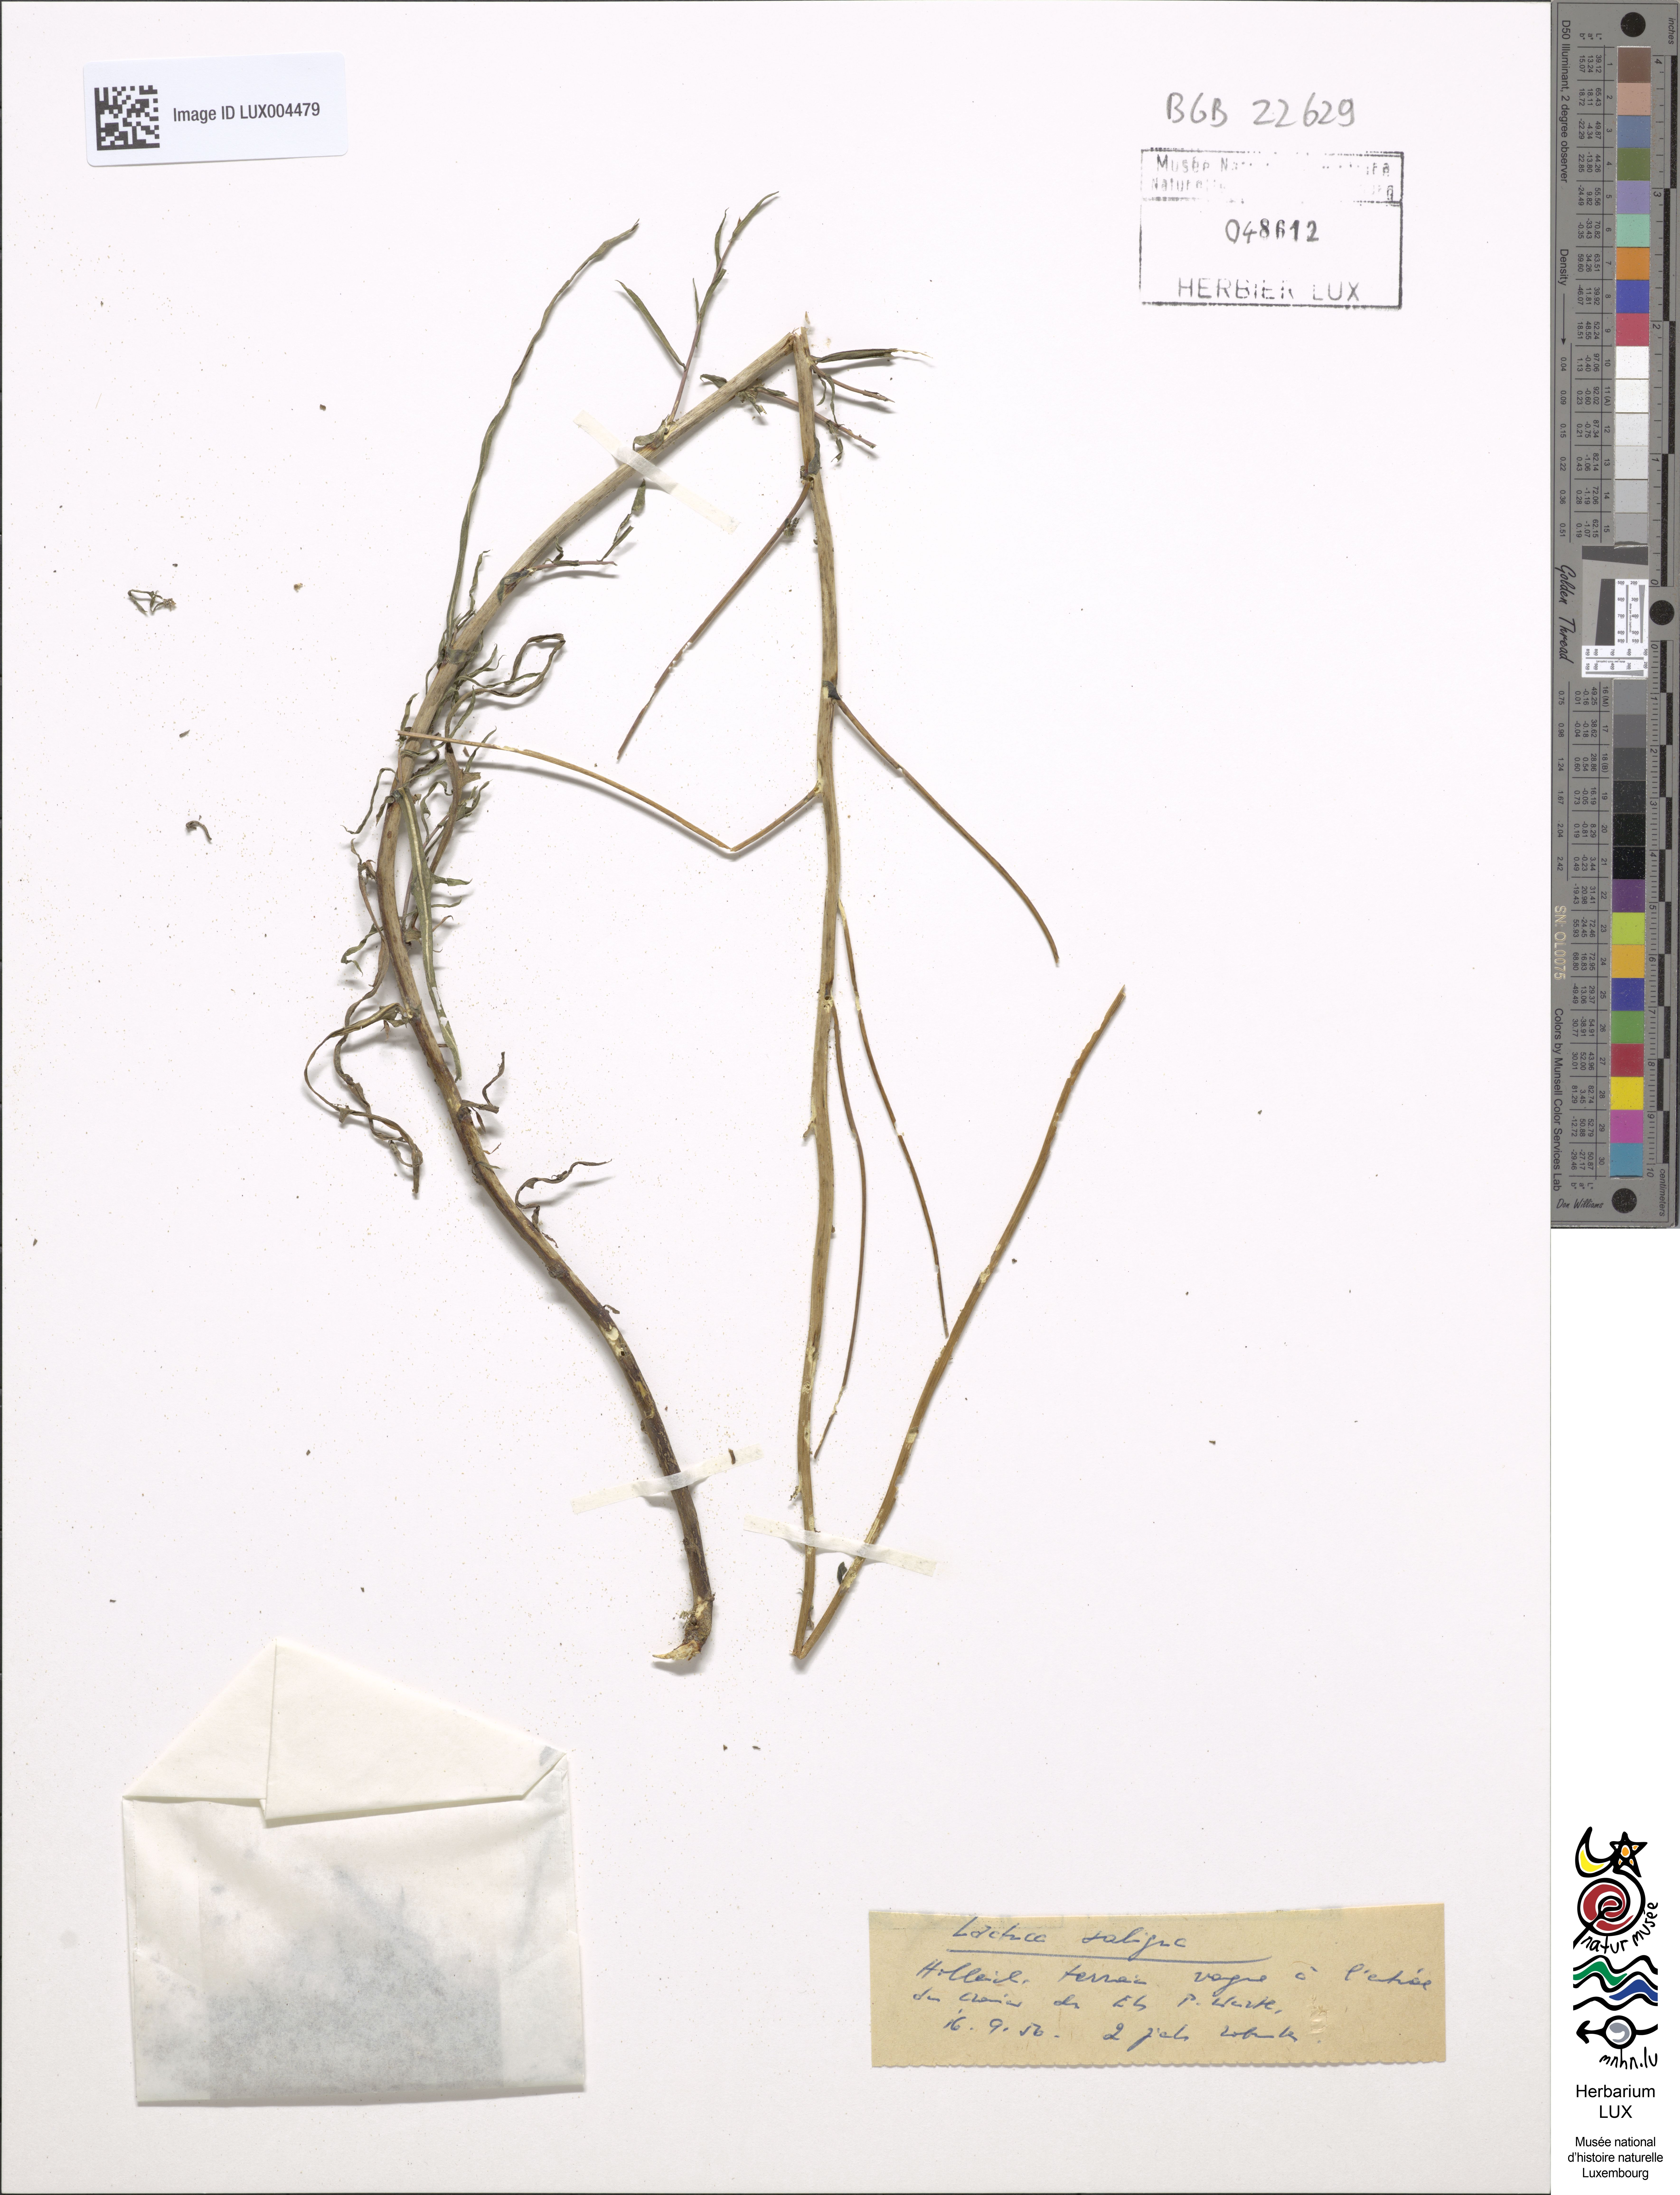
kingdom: Plantae
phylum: Tracheophyta
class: Magnoliopsida
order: Asterales
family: Asteraceae
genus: Lactuca
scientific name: Lactuca saligna
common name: Wild lettuce
